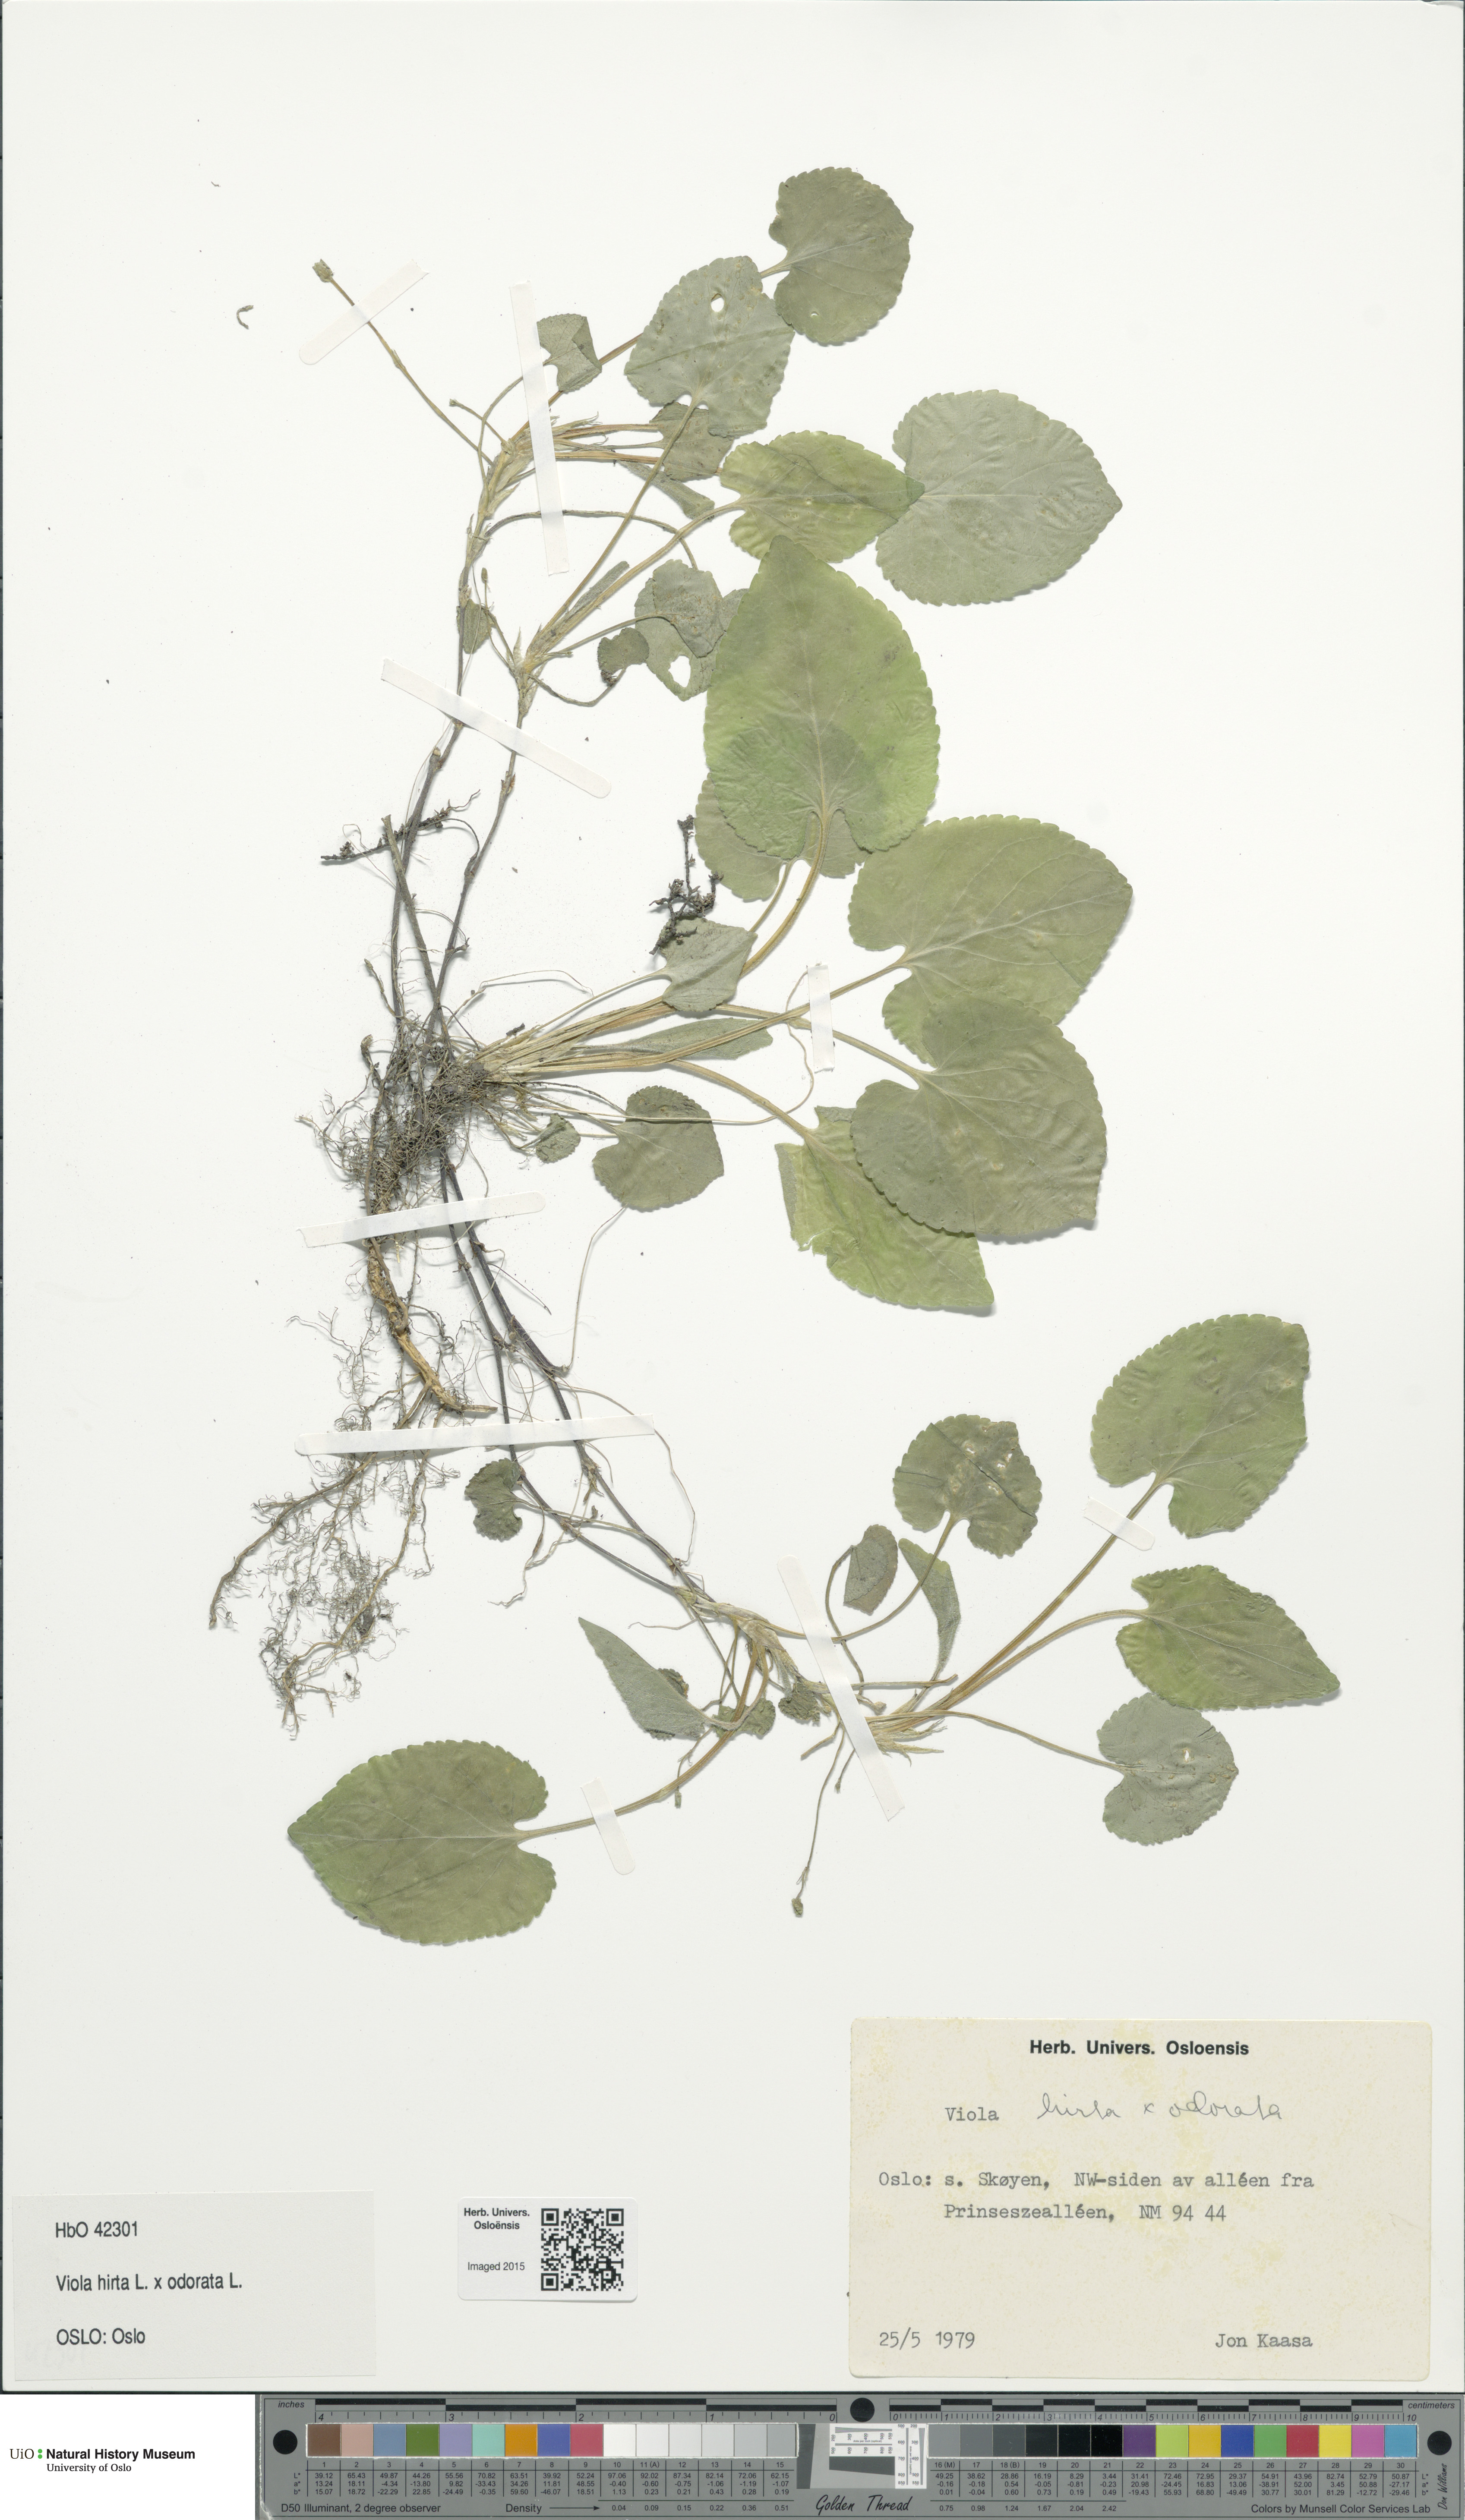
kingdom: Plantae
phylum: Tracheophyta
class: Magnoliopsida
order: Malpighiales
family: Violaceae
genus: Viola
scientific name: Viola
